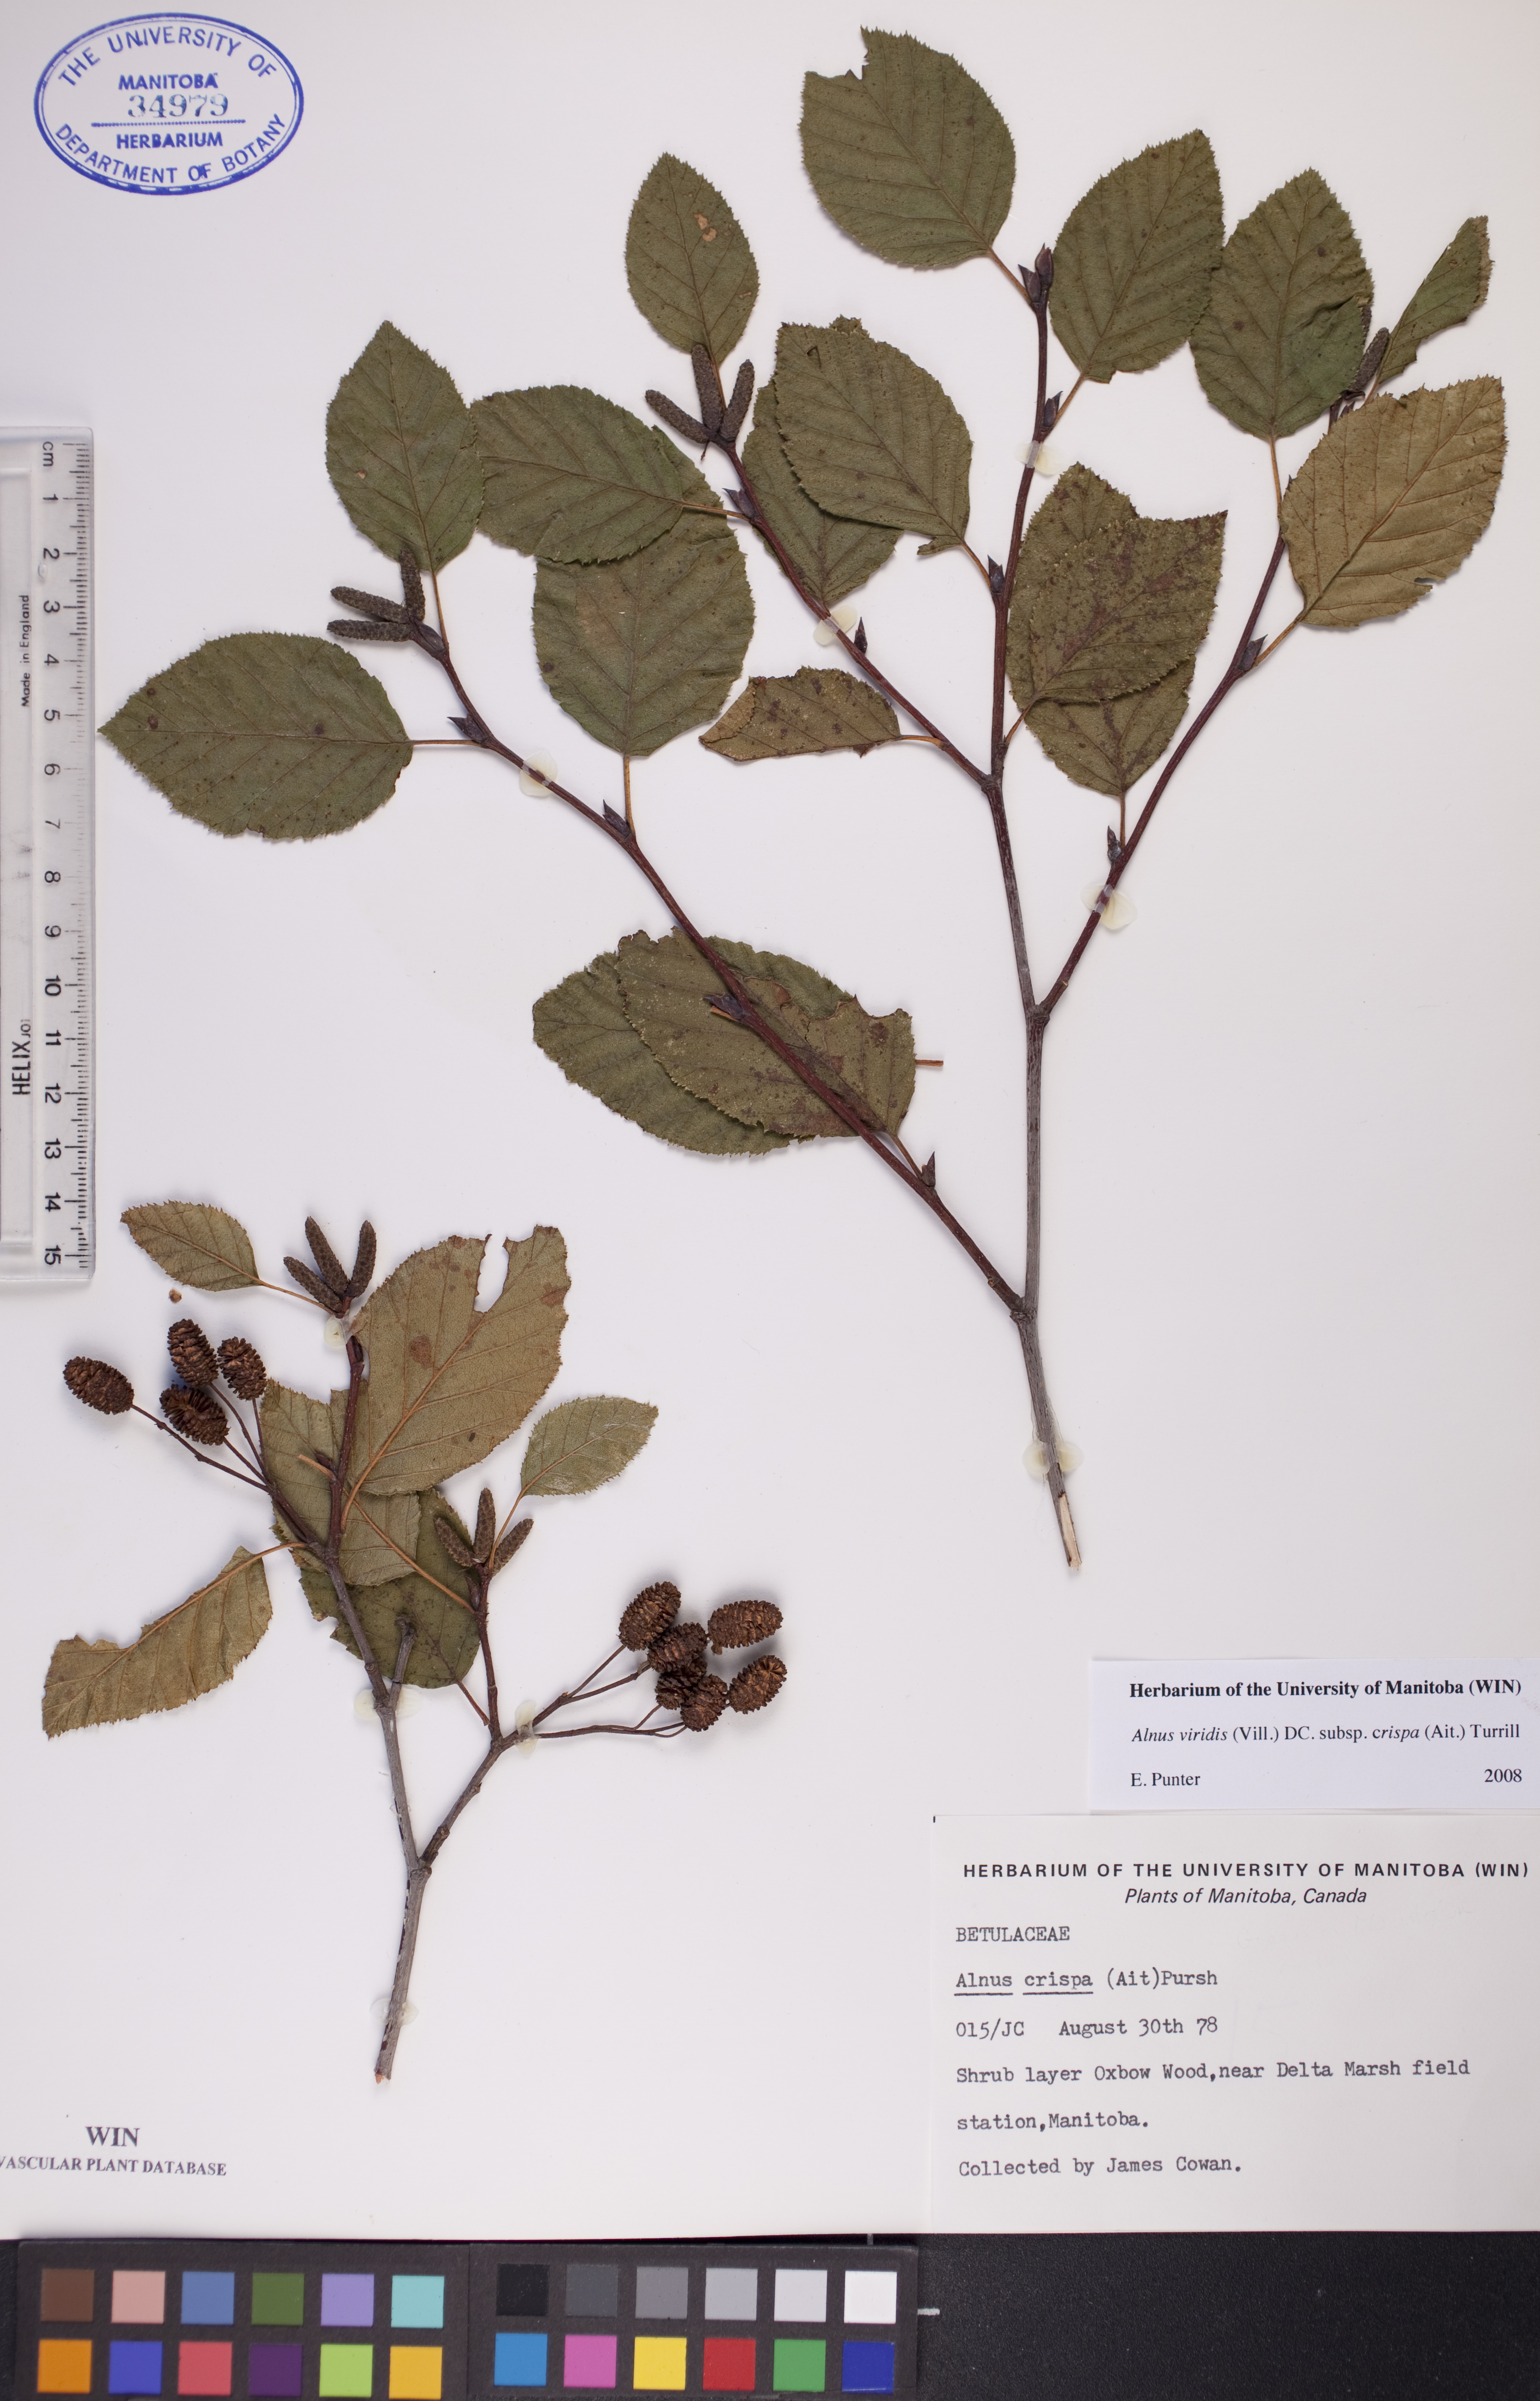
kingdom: Plantae
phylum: Tracheophyta
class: Magnoliopsida
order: Fagales
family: Betulaceae
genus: Alnus
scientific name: Alnus alnobetula
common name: Green alder
